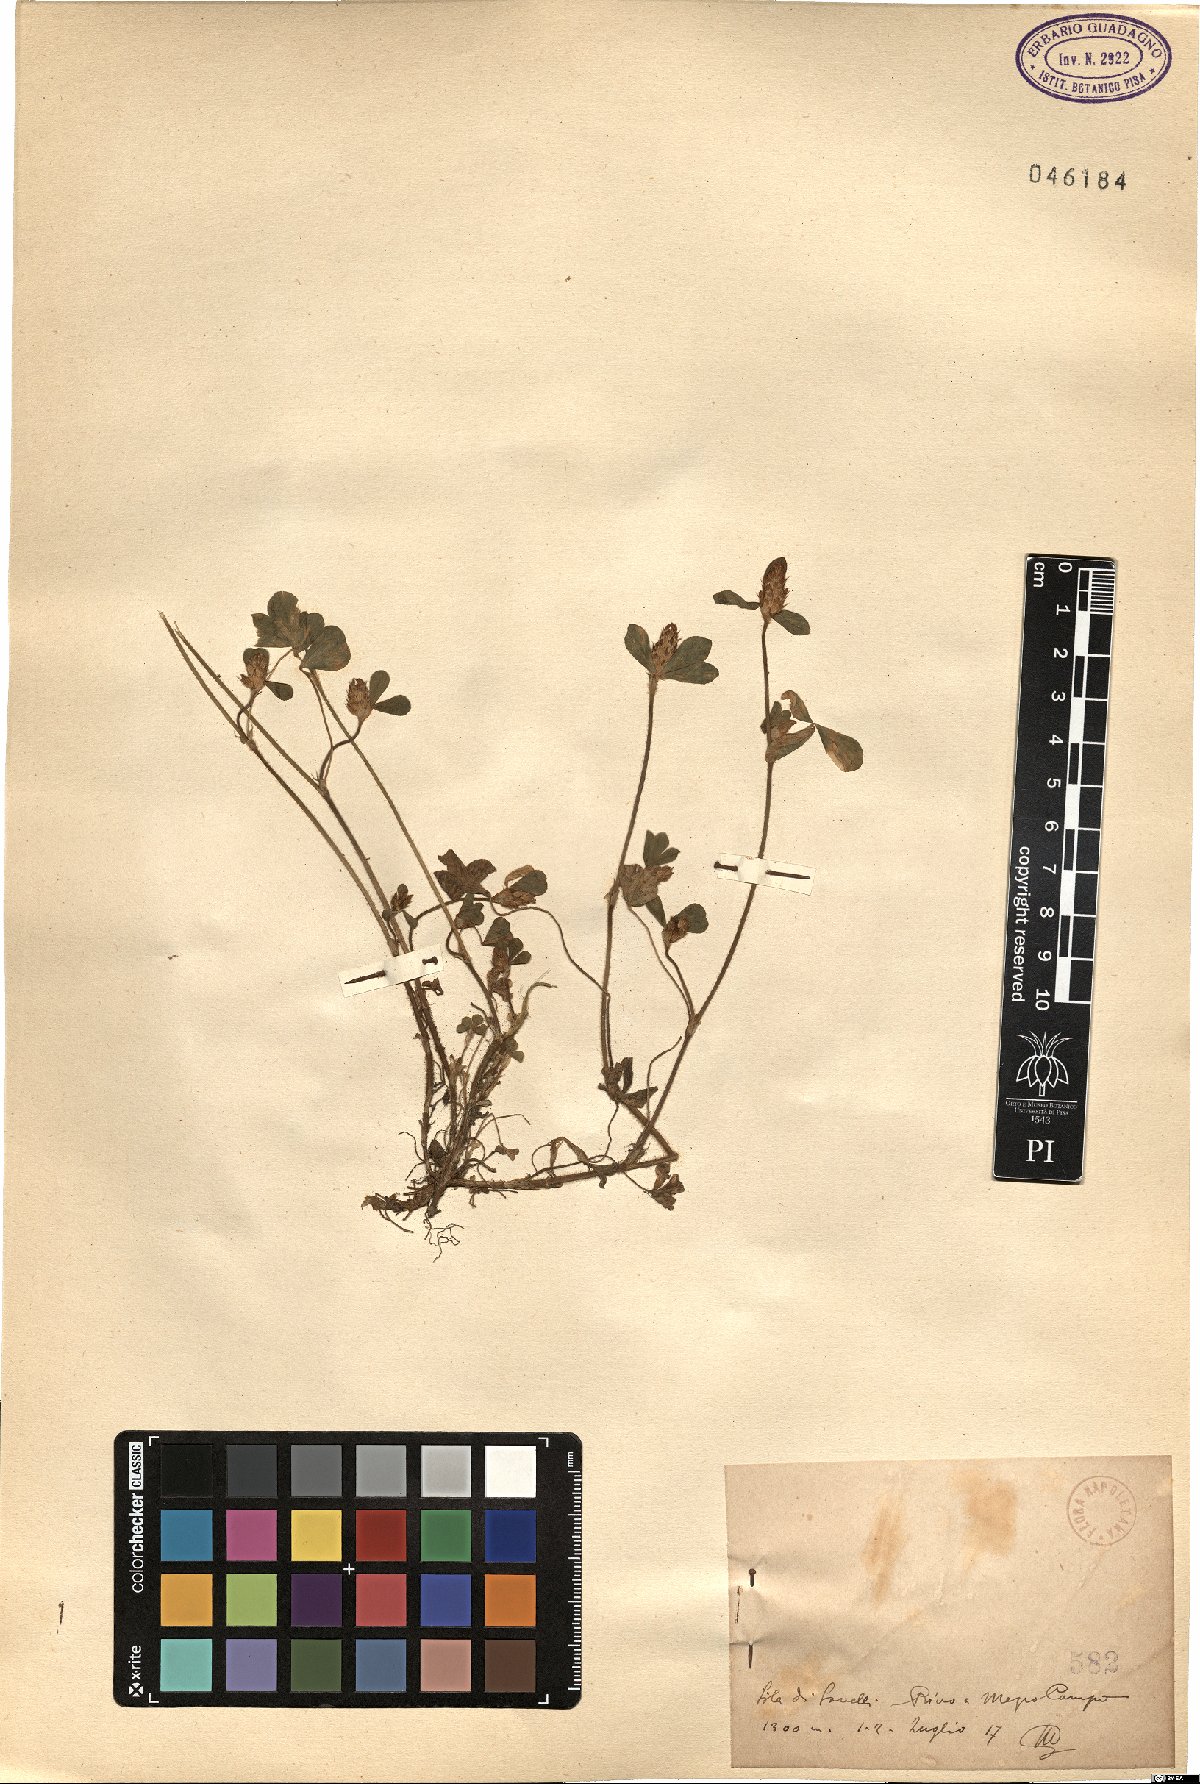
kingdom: Plantae
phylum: Tracheophyta
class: Magnoliopsida
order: Fabales
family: Fabaceae
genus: Trifolium
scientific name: Trifolium
